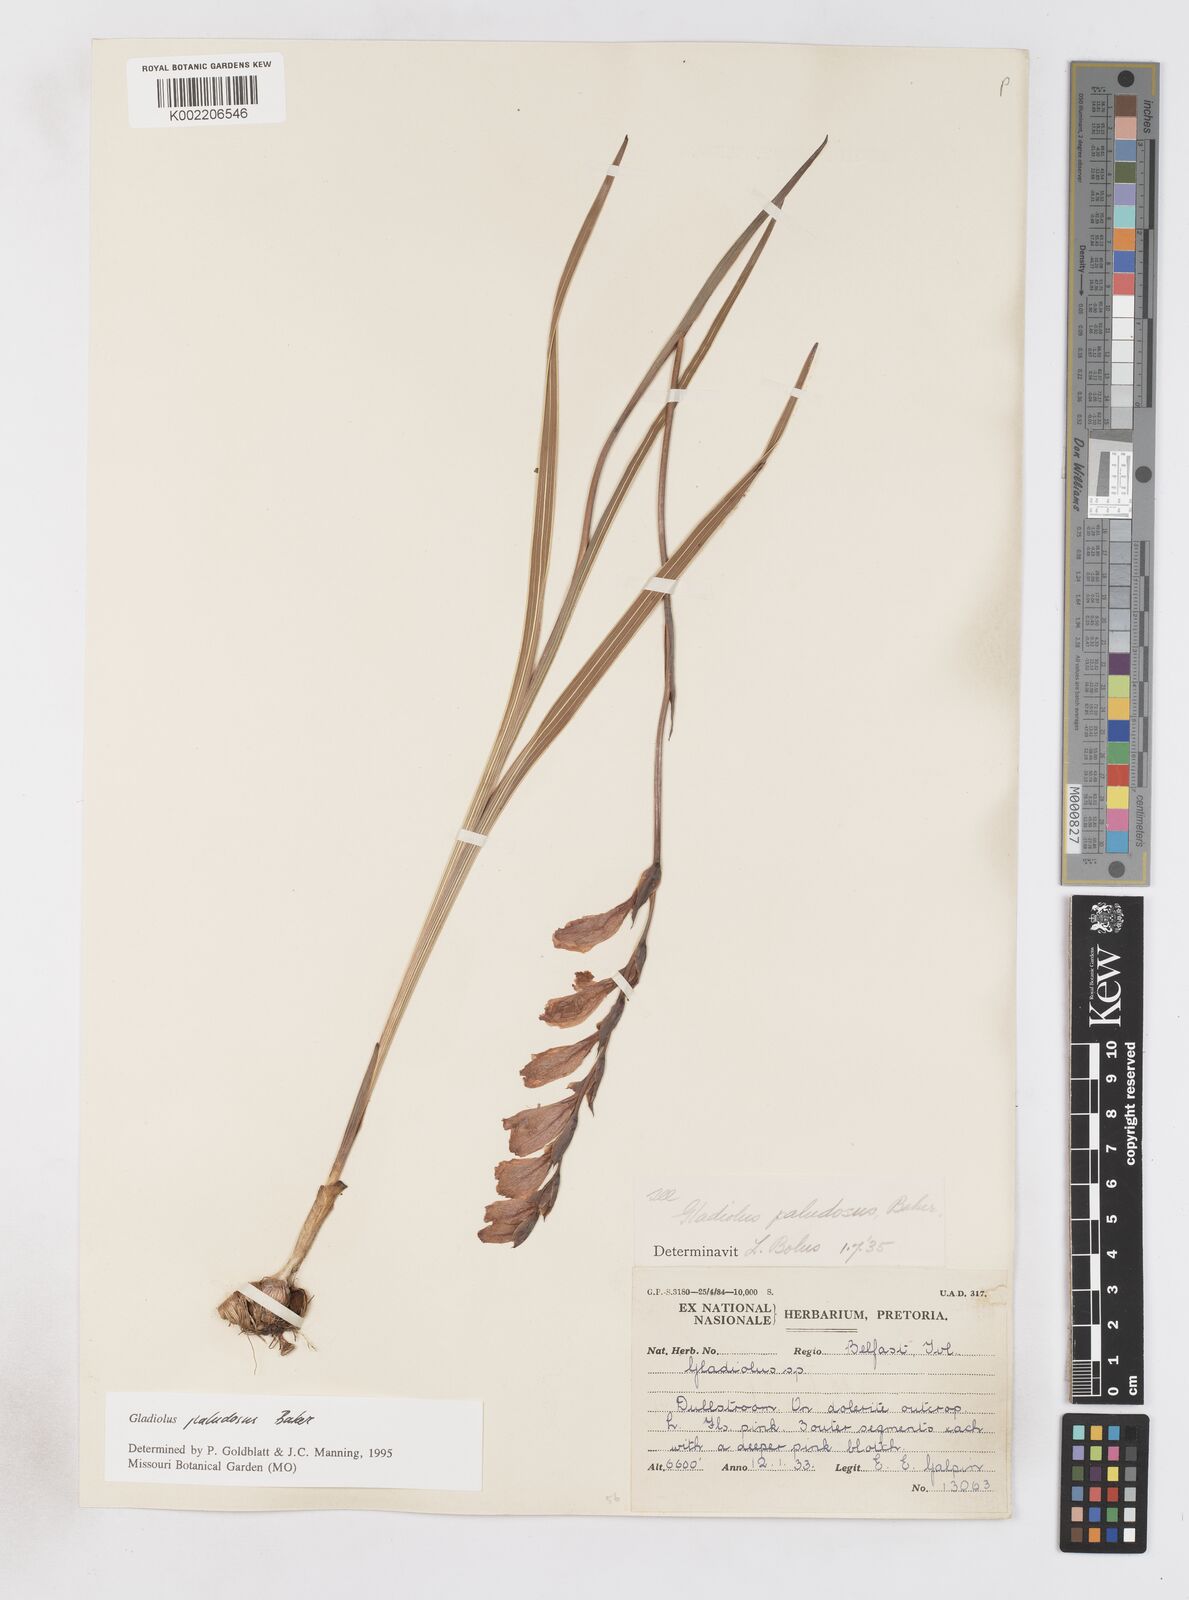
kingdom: Plantae
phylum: Tracheophyta
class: Liliopsida
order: Asparagales
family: Iridaceae
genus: Gladiolus
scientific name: Gladiolus paludosus
